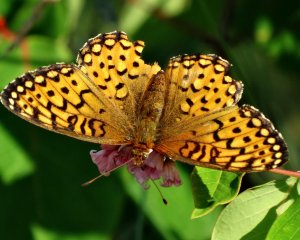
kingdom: Animalia
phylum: Arthropoda
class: Insecta
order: Lepidoptera
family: Nymphalidae
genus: Speyeria
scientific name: Speyeria mormonia
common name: Mormon Fritillary
